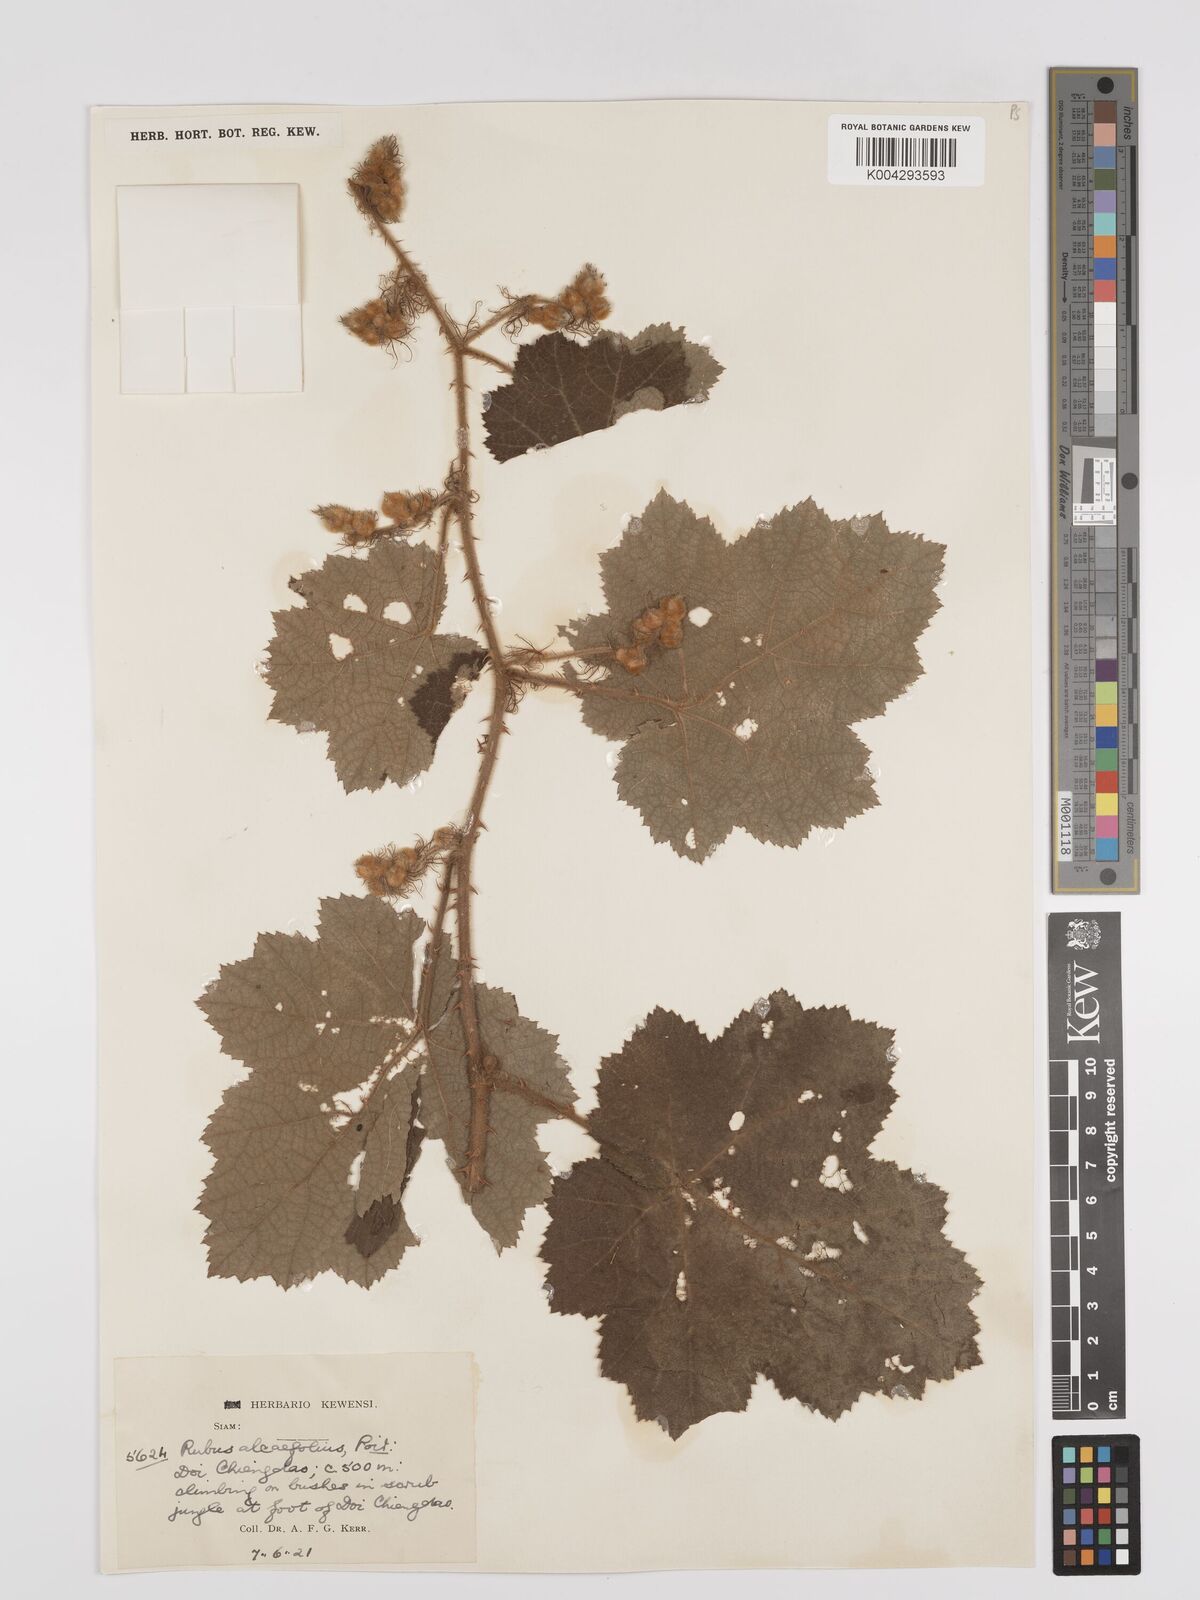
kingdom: Plantae
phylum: Tracheophyta
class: Magnoliopsida
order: Rosales
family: Rosaceae
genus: Rubus
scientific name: Rubus alceifolius
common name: Giant bramble
